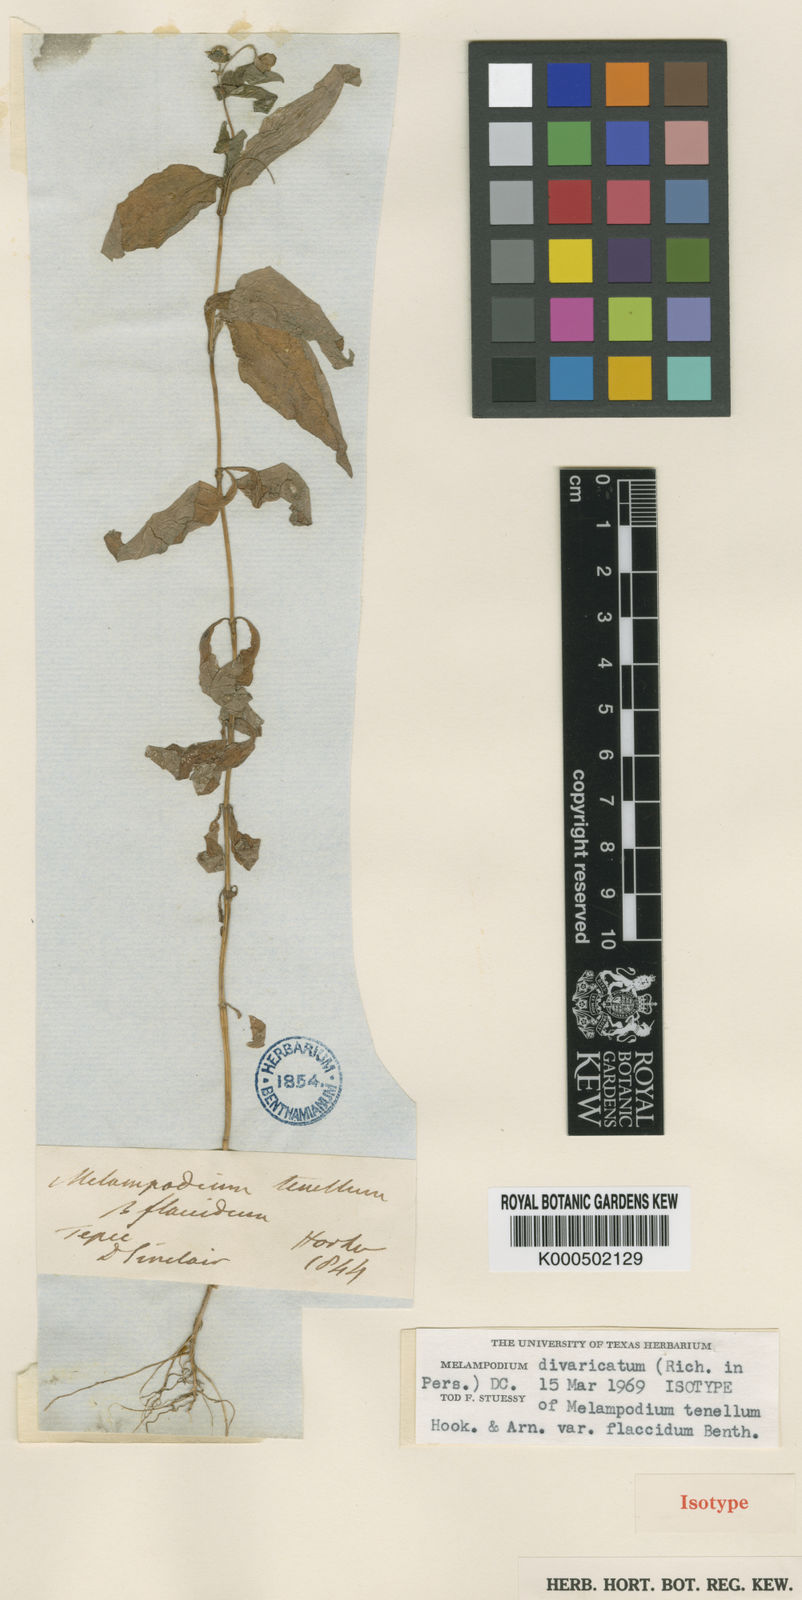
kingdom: Plantae
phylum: Tracheophyta
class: Magnoliopsida
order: Asterales
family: Asteraceae
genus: Melampodium
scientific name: Melampodium divaricatum
